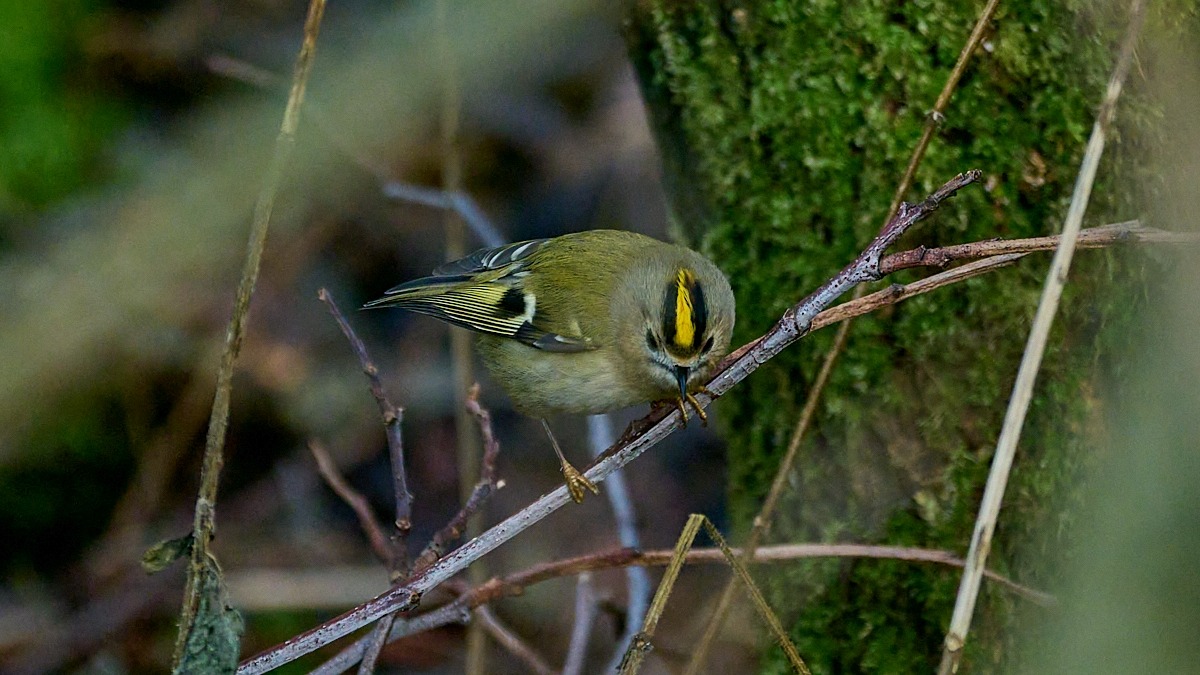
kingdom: Animalia
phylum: Chordata
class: Aves
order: Passeriformes
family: Regulidae
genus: Regulus
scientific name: Regulus regulus
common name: Fuglekonge
